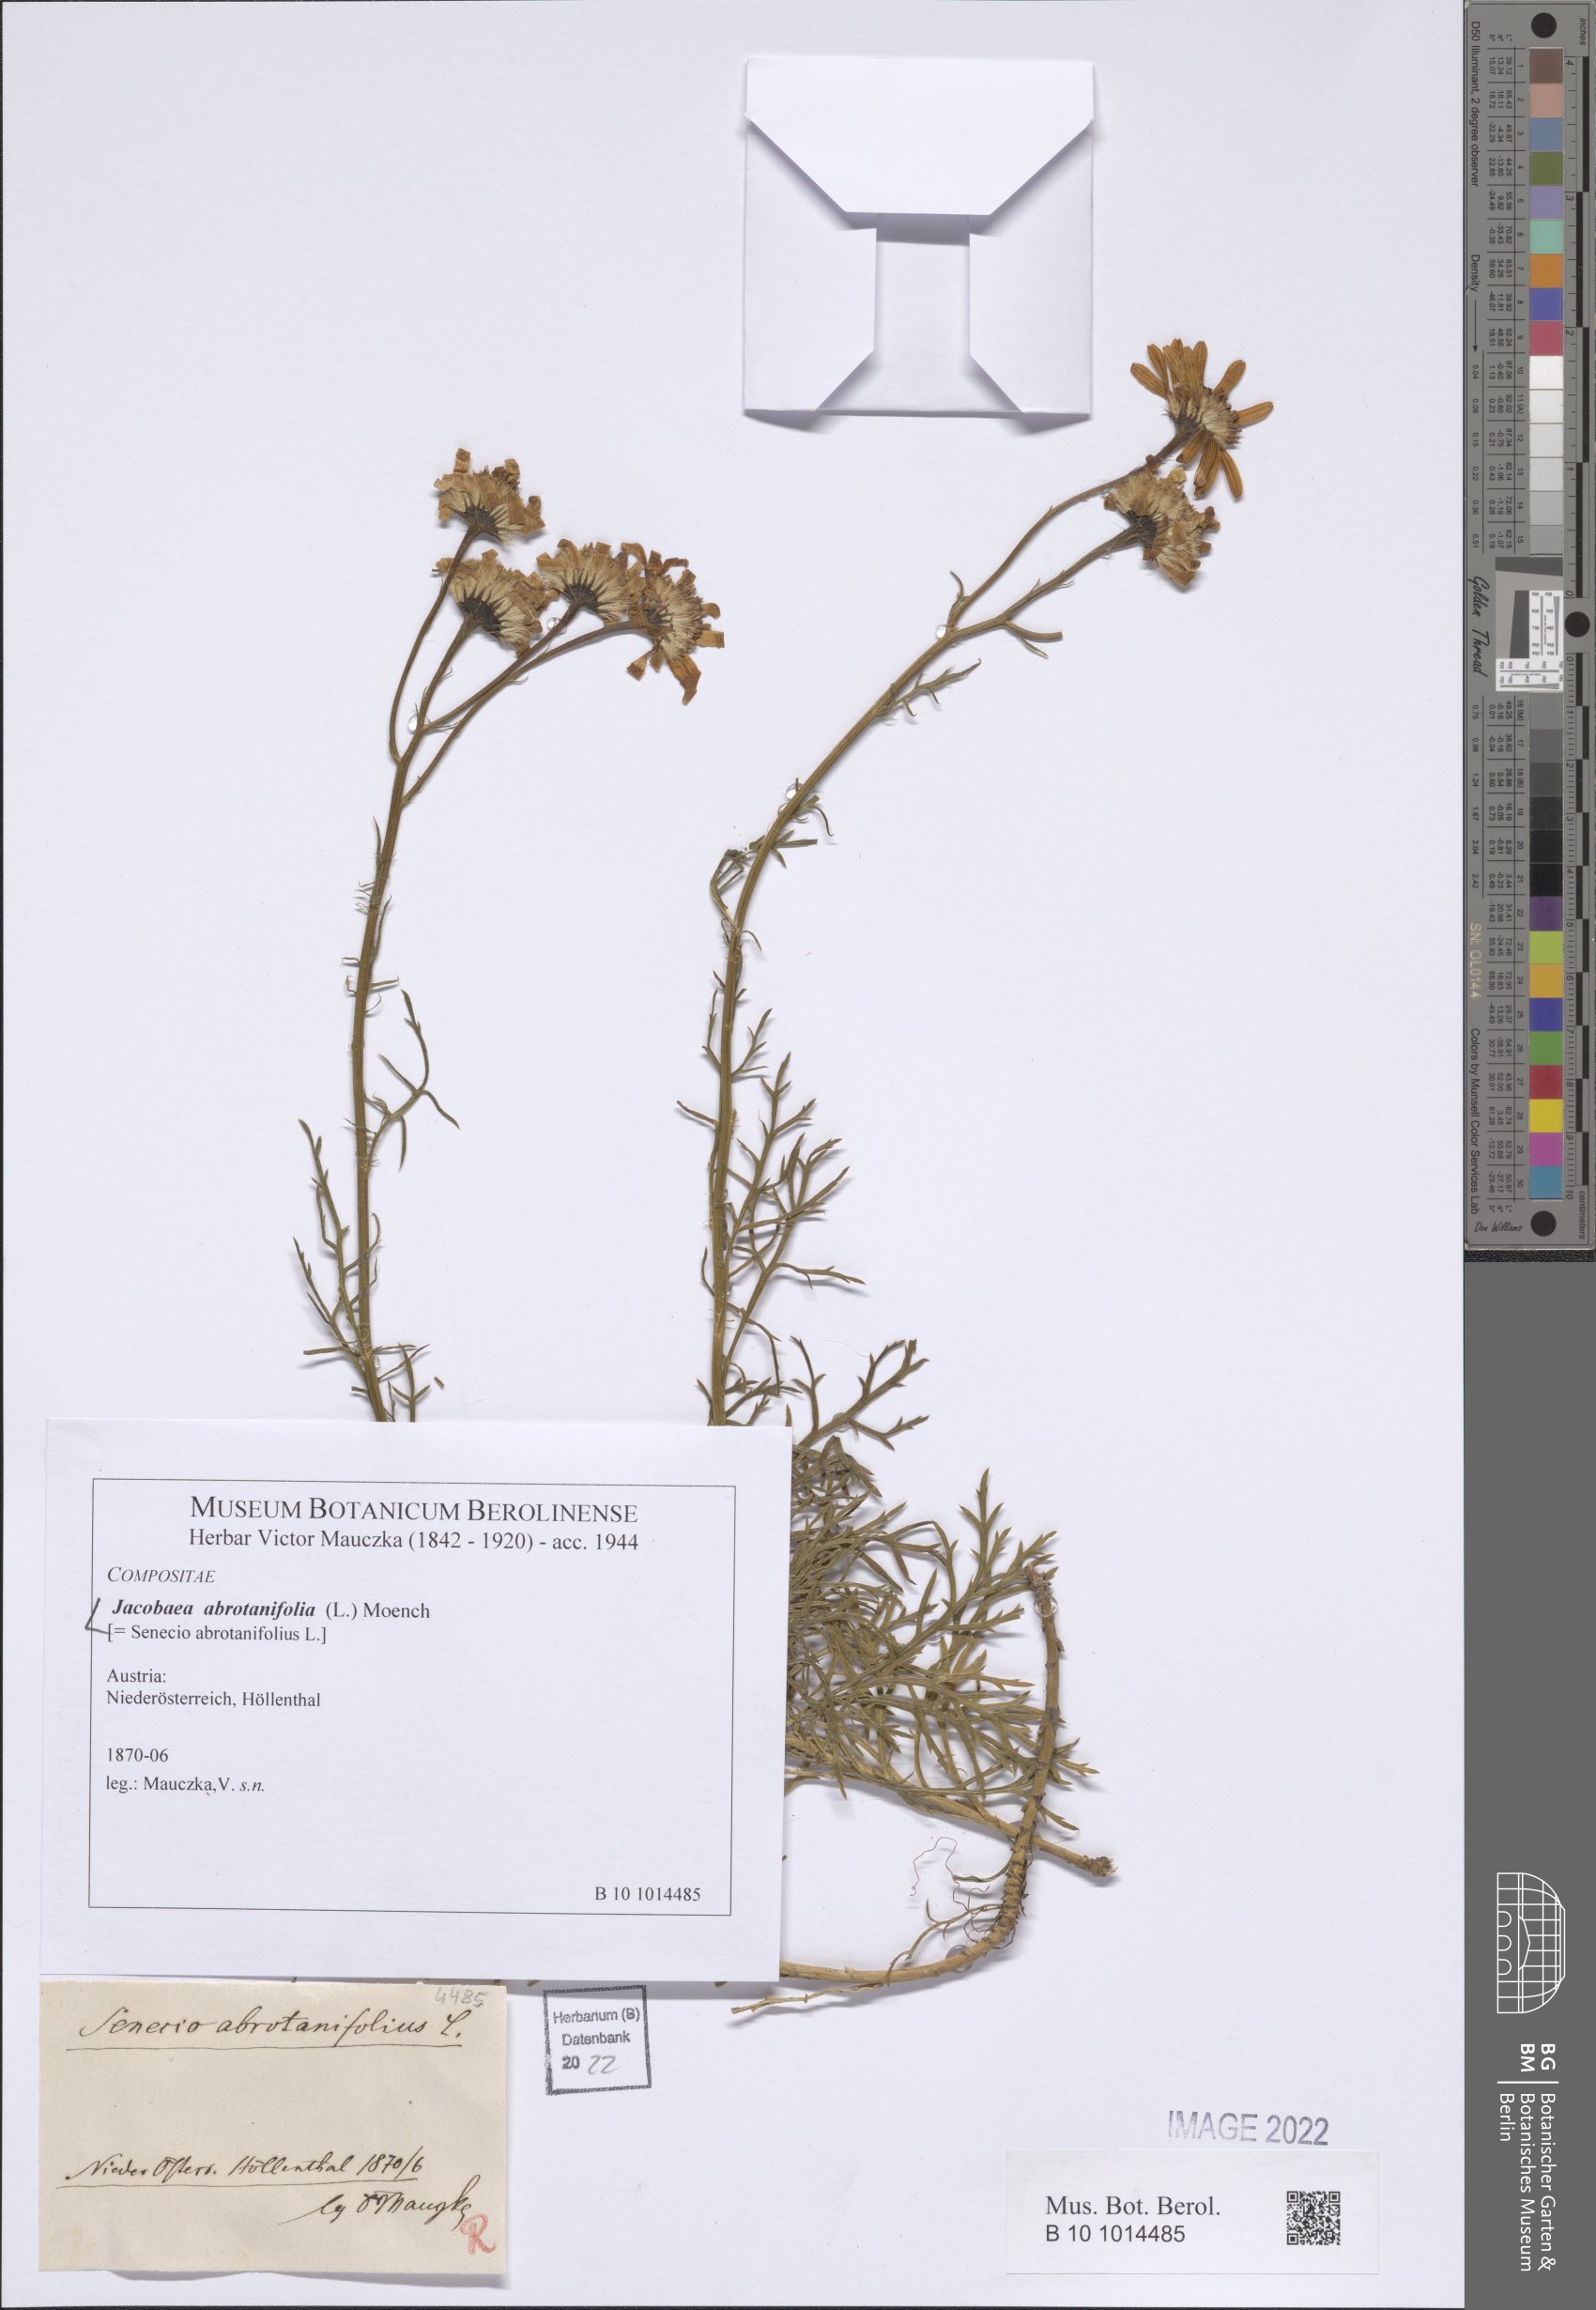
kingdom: Plantae
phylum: Tracheophyta
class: Magnoliopsida
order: Asterales
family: Asteraceae
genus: Jacobaea
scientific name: Jacobaea abrotanifolia
